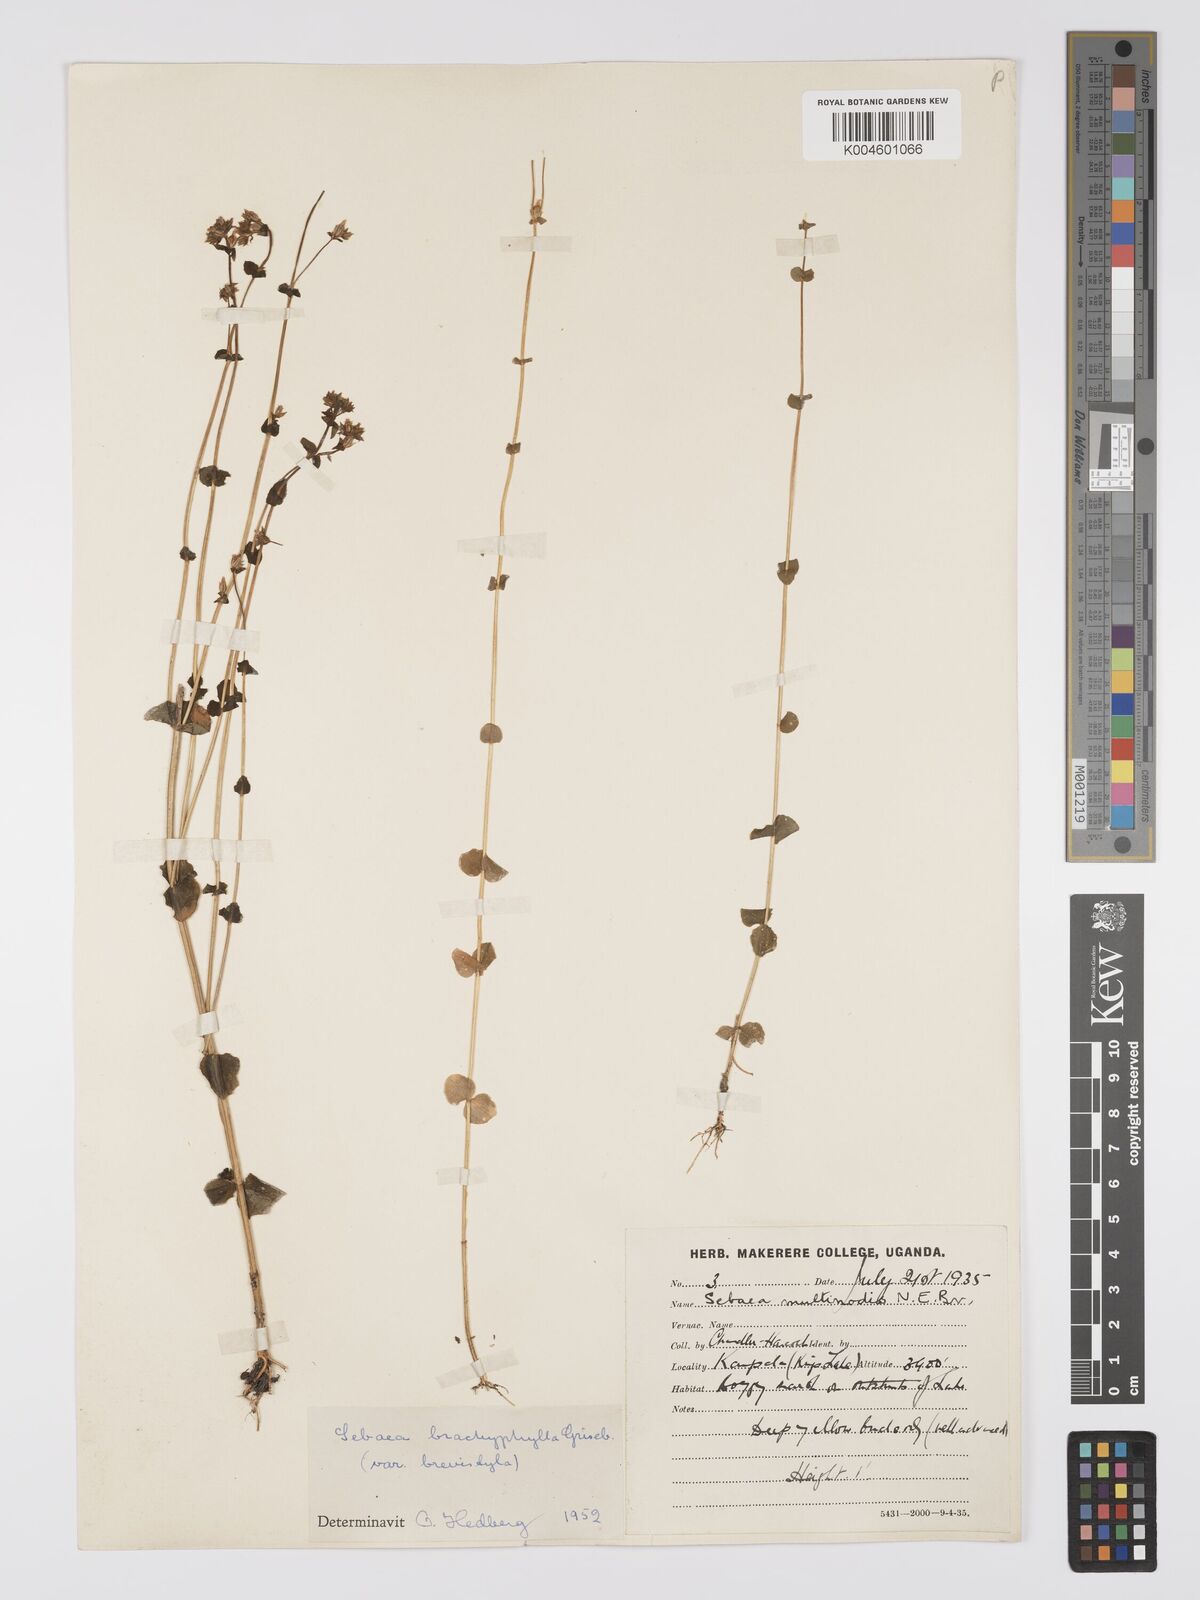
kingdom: Plantae
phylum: Tracheophyta
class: Magnoliopsida
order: Gentianales
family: Gentianaceae
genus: Sebaea
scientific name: Sebaea brachyphylla
